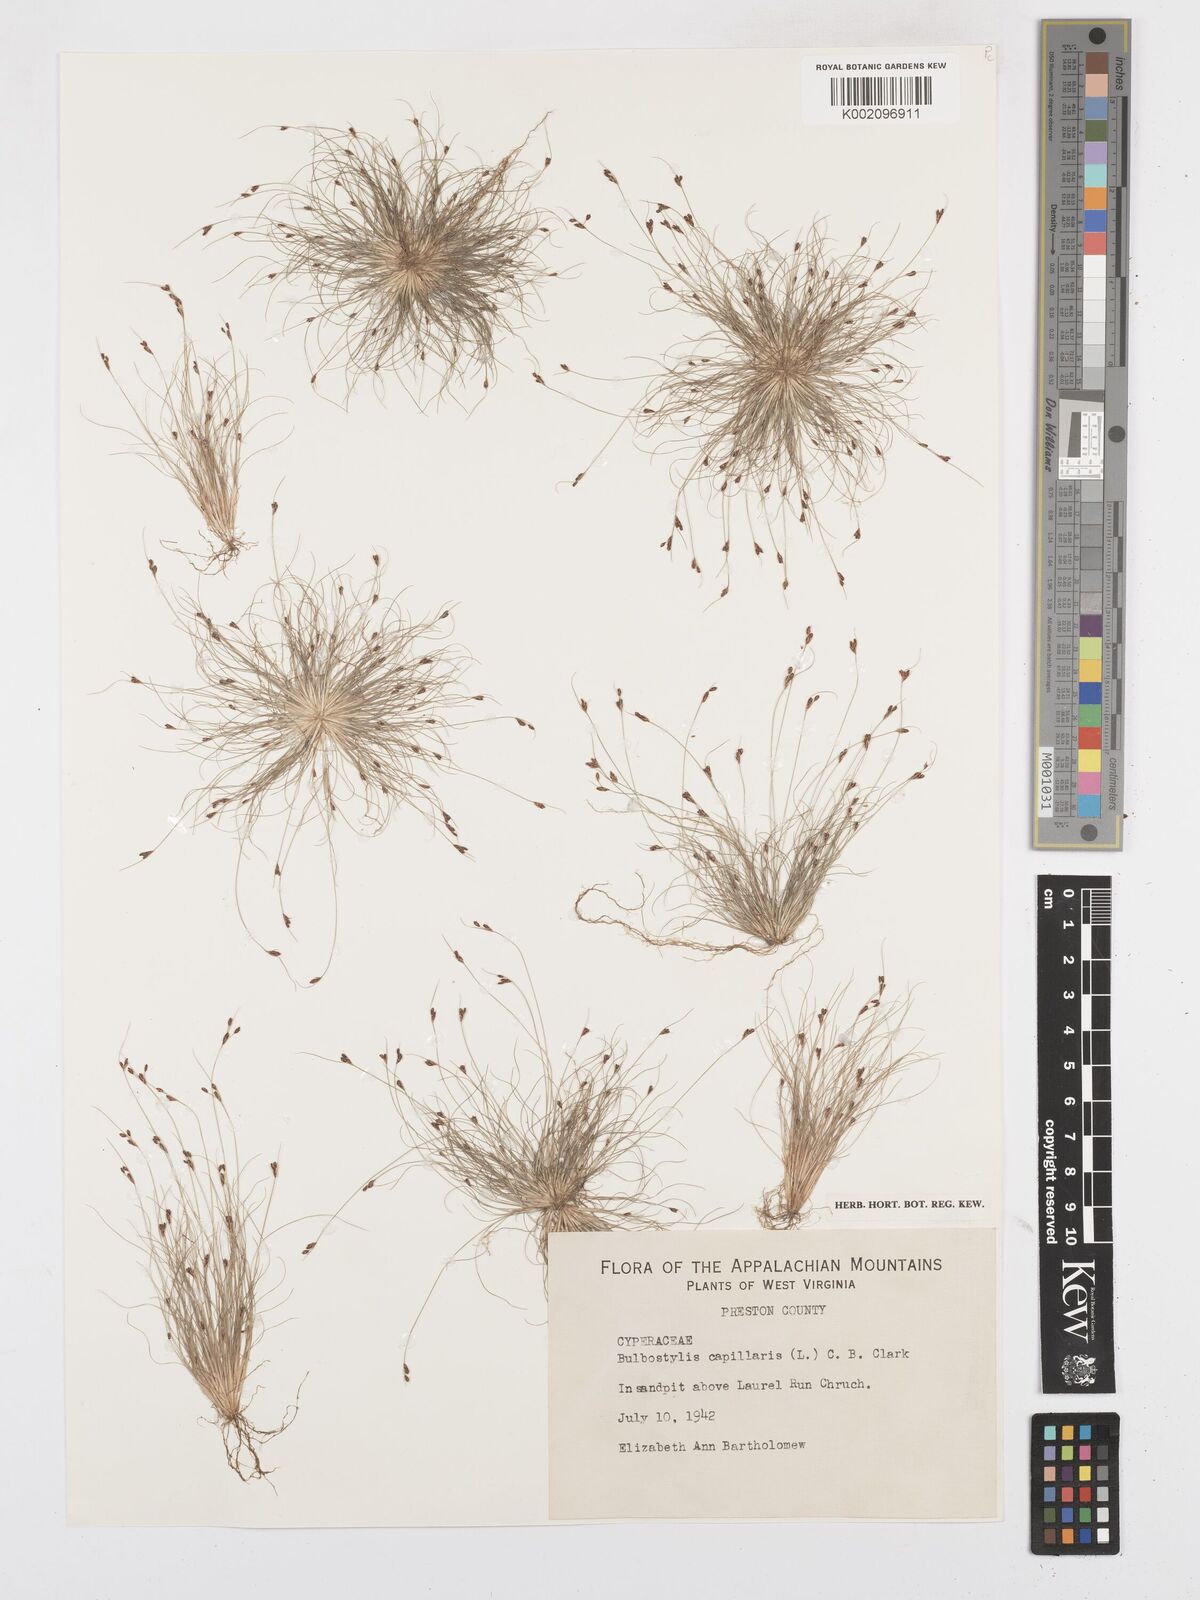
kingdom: Plantae
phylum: Tracheophyta
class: Liliopsida
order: Poales
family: Cyperaceae
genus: Bulbostylis
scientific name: Bulbostylis capillaris
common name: Densetuft hairsedge
